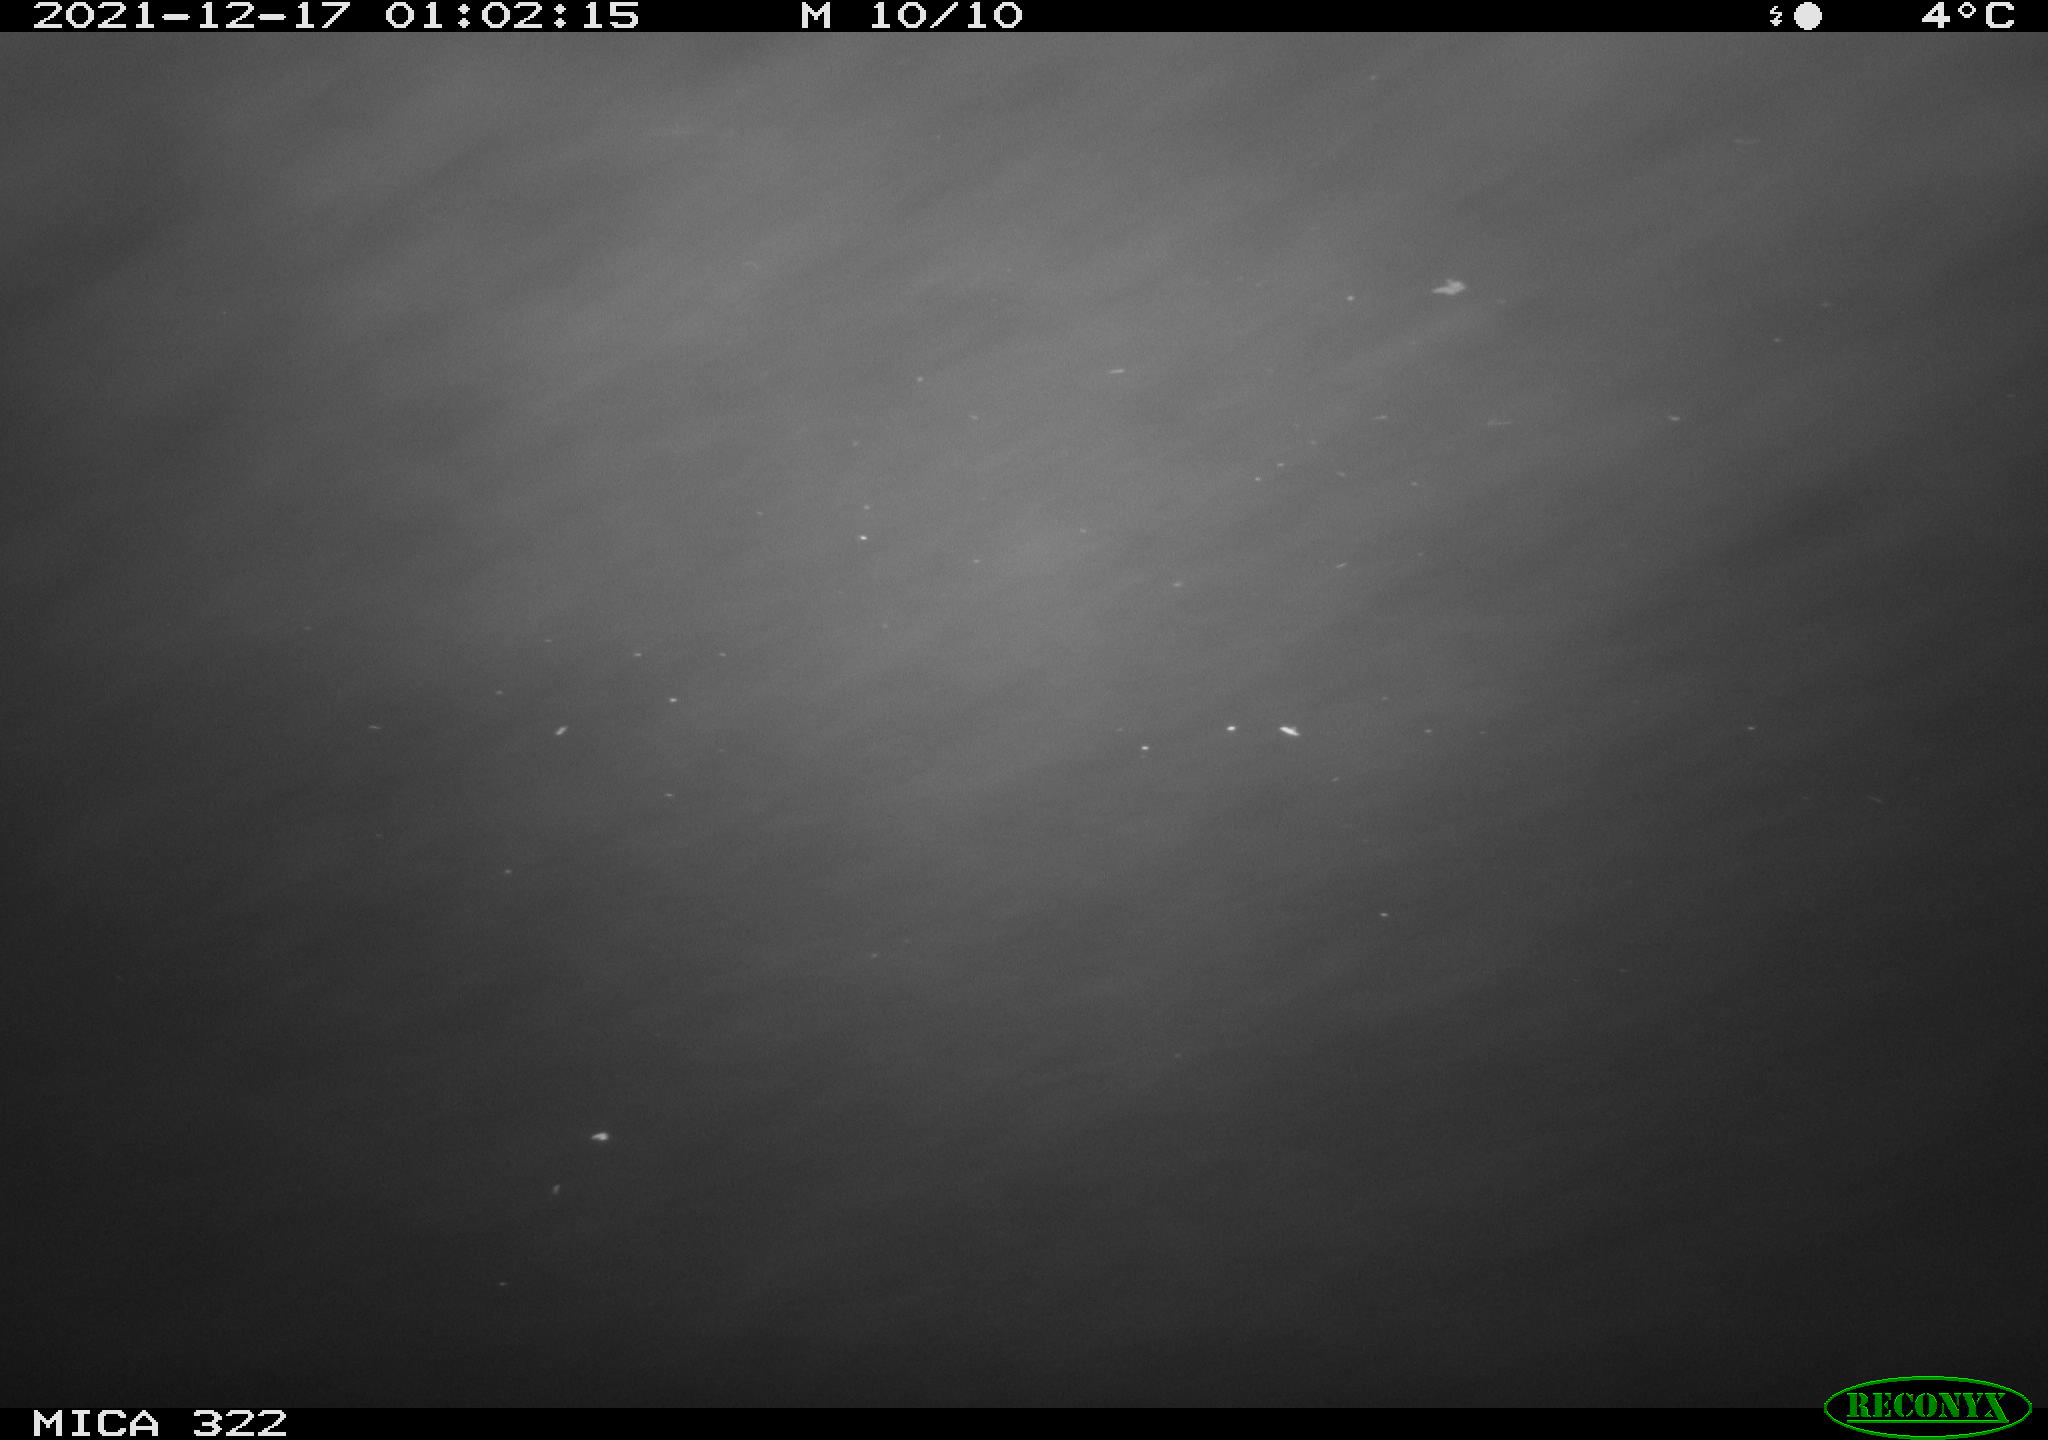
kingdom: Animalia
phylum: Chordata
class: Mammalia
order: Rodentia
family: Muridae
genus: Rattus
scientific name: Rattus norvegicus
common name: Brown rat
